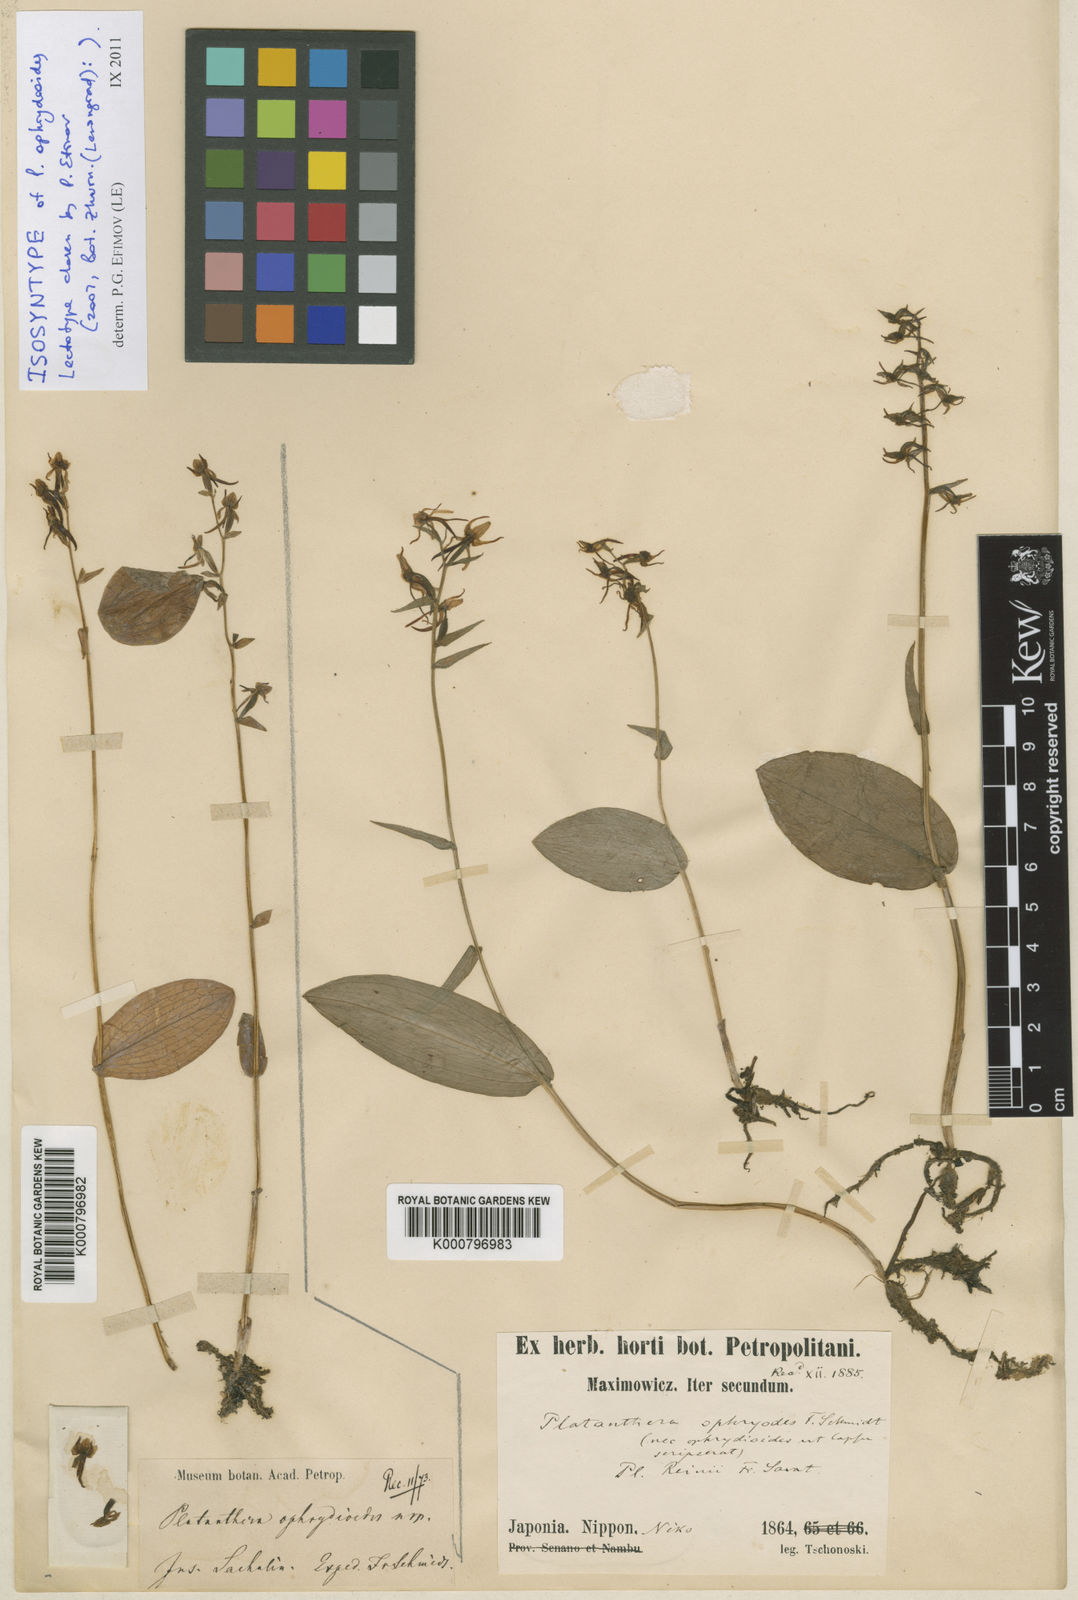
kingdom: Plantae
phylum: Tracheophyta
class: Liliopsida
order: Asparagales
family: Orchidaceae
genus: Platanthera
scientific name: Platanthera ophrydioides
